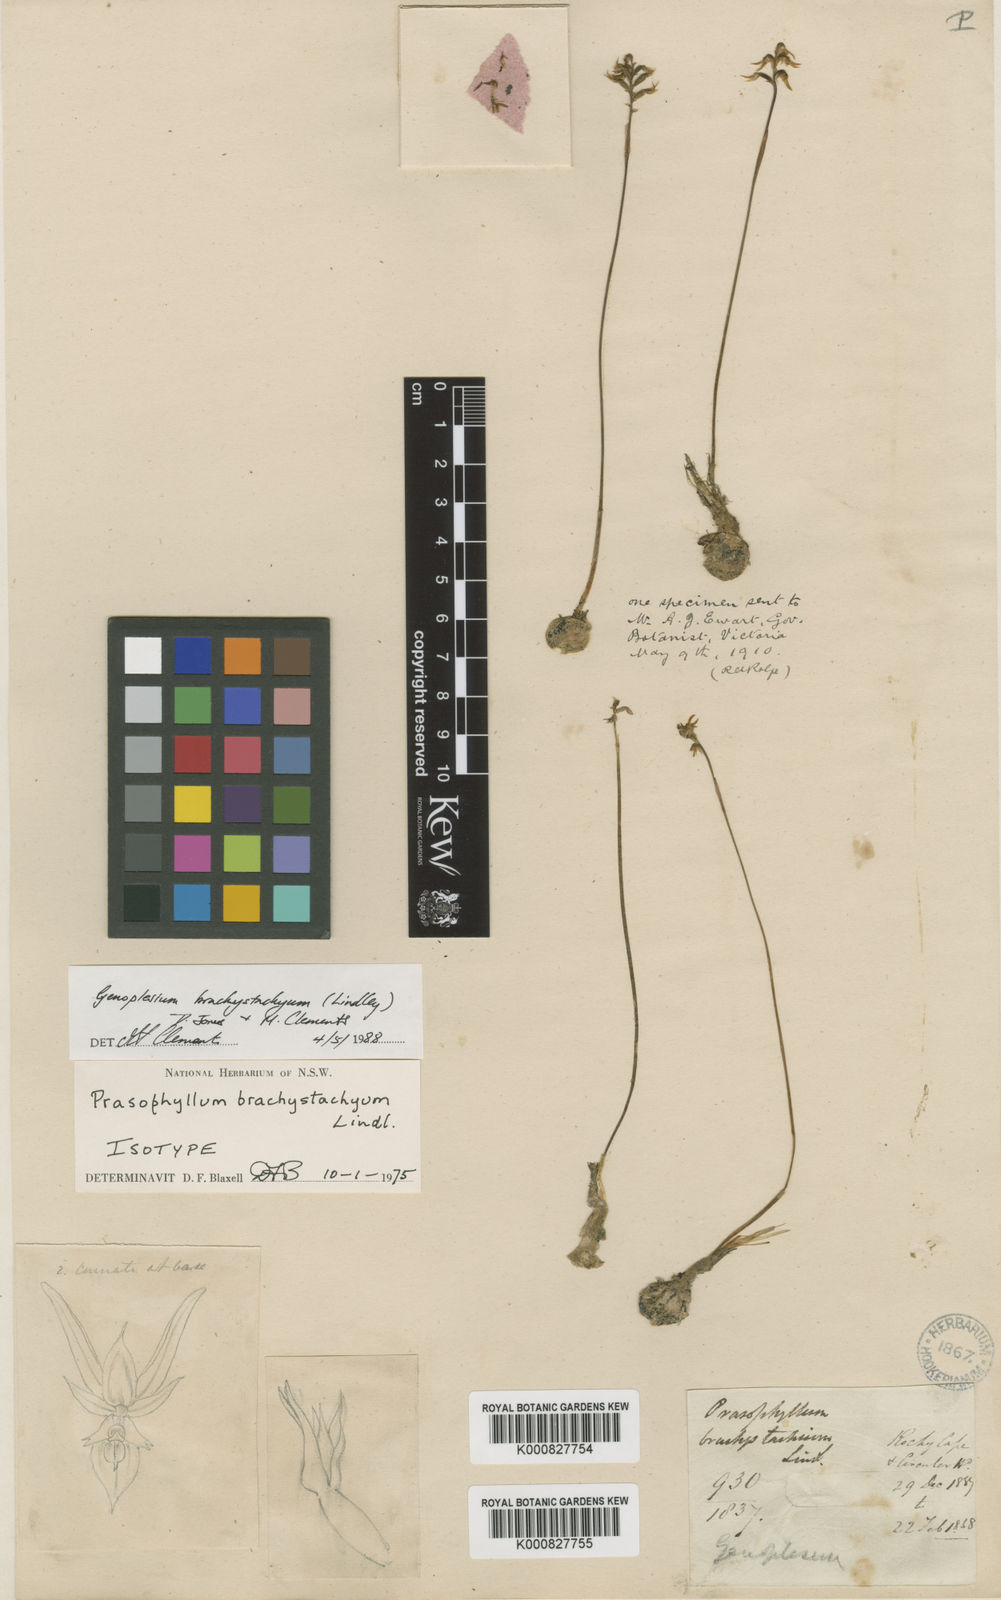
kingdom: Plantae
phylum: Tracheophyta
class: Liliopsida
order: Asparagales
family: Orchidaceae
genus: Genoplesium
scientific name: Genoplesium brachystachyum
